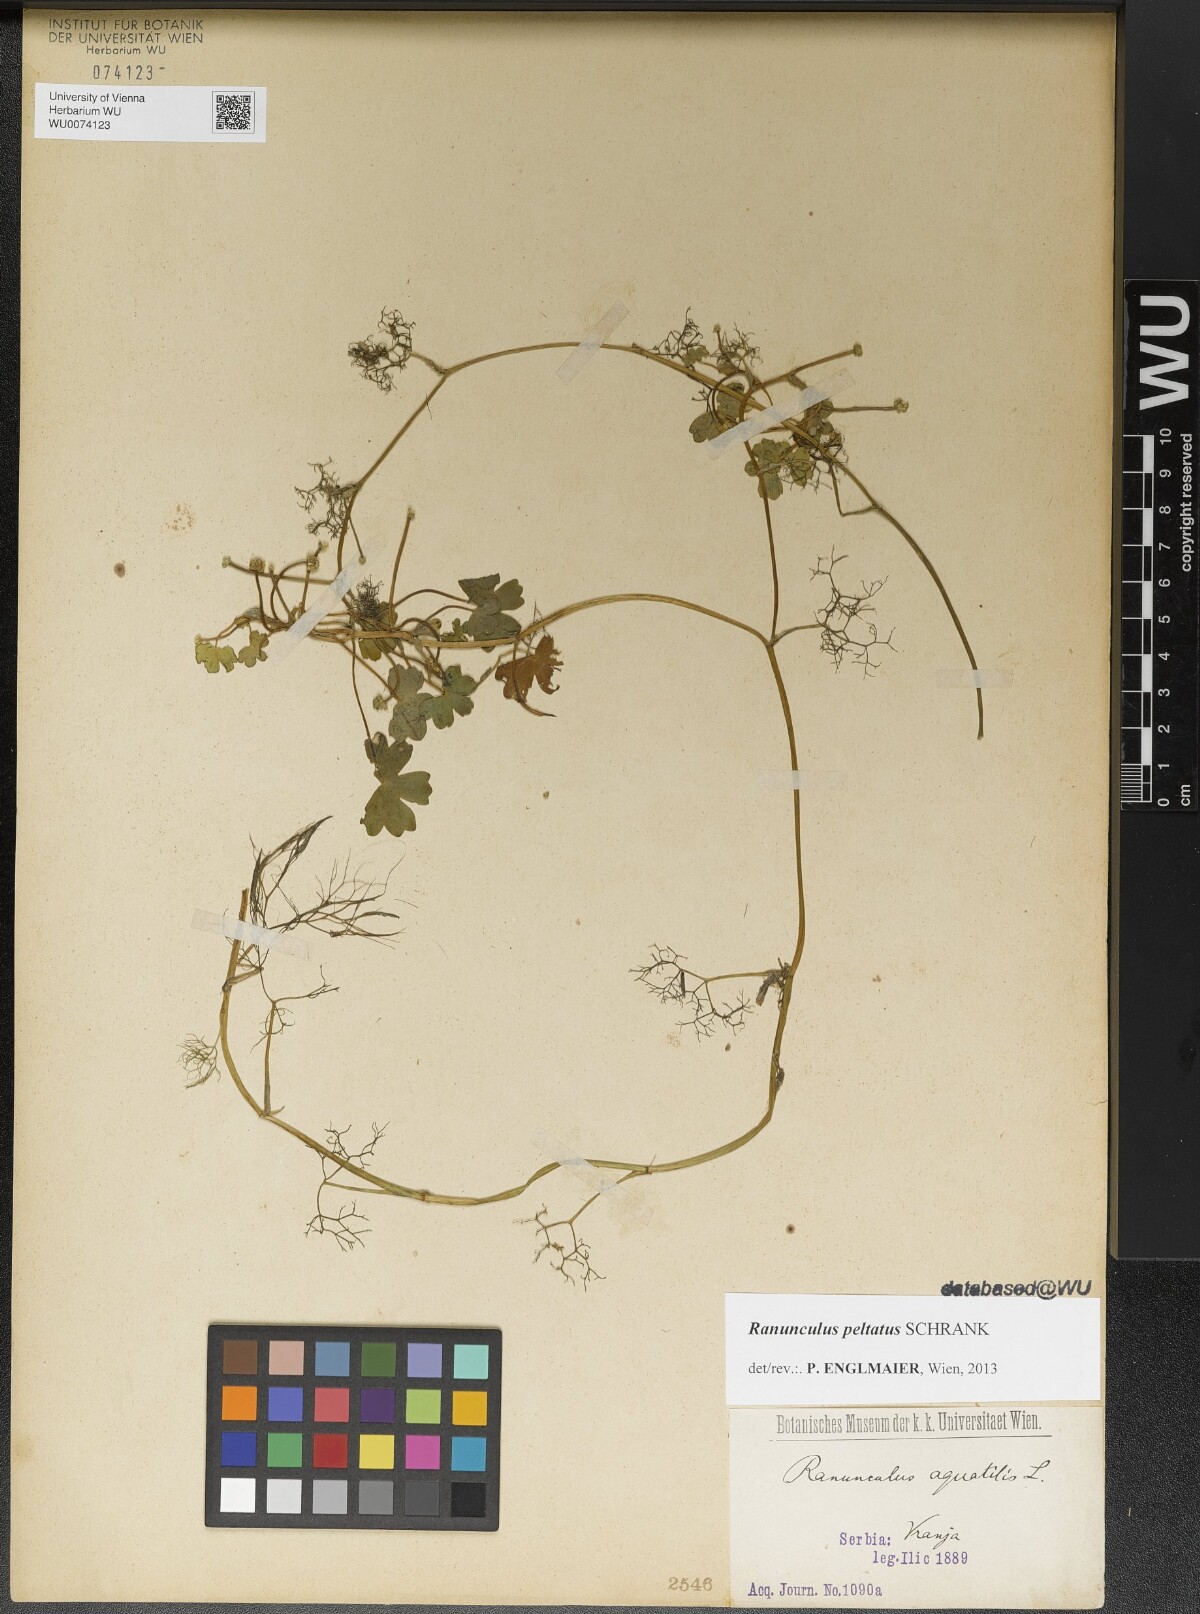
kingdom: Plantae
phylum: Tracheophyta
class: Magnoliopsida
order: Ranunculales
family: Ranunculaceae
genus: Ranunculus
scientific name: Ranunculus aquatilis
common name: Common water-crowfoot
